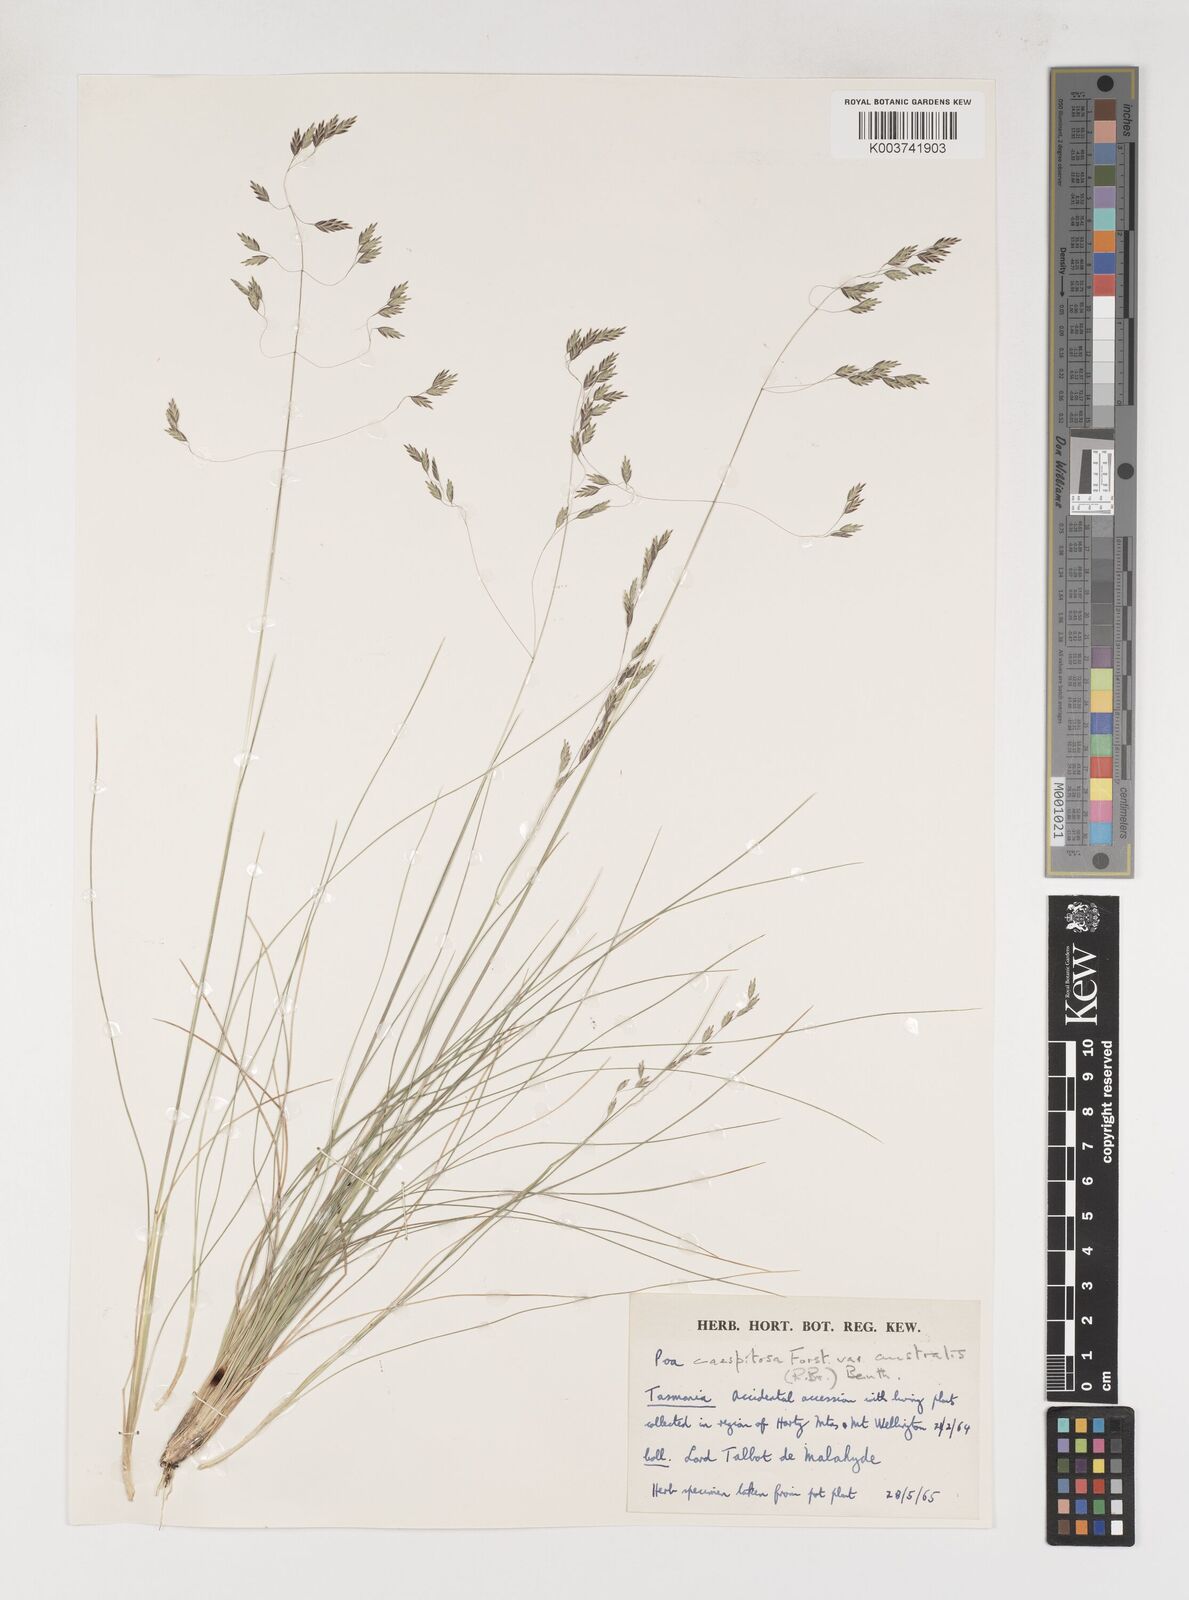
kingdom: Plantae
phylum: Tracheophyta
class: Liliopsida
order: Poales
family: Poaceae
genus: Poa
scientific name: Poa sieberiana
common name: Tussock poa
